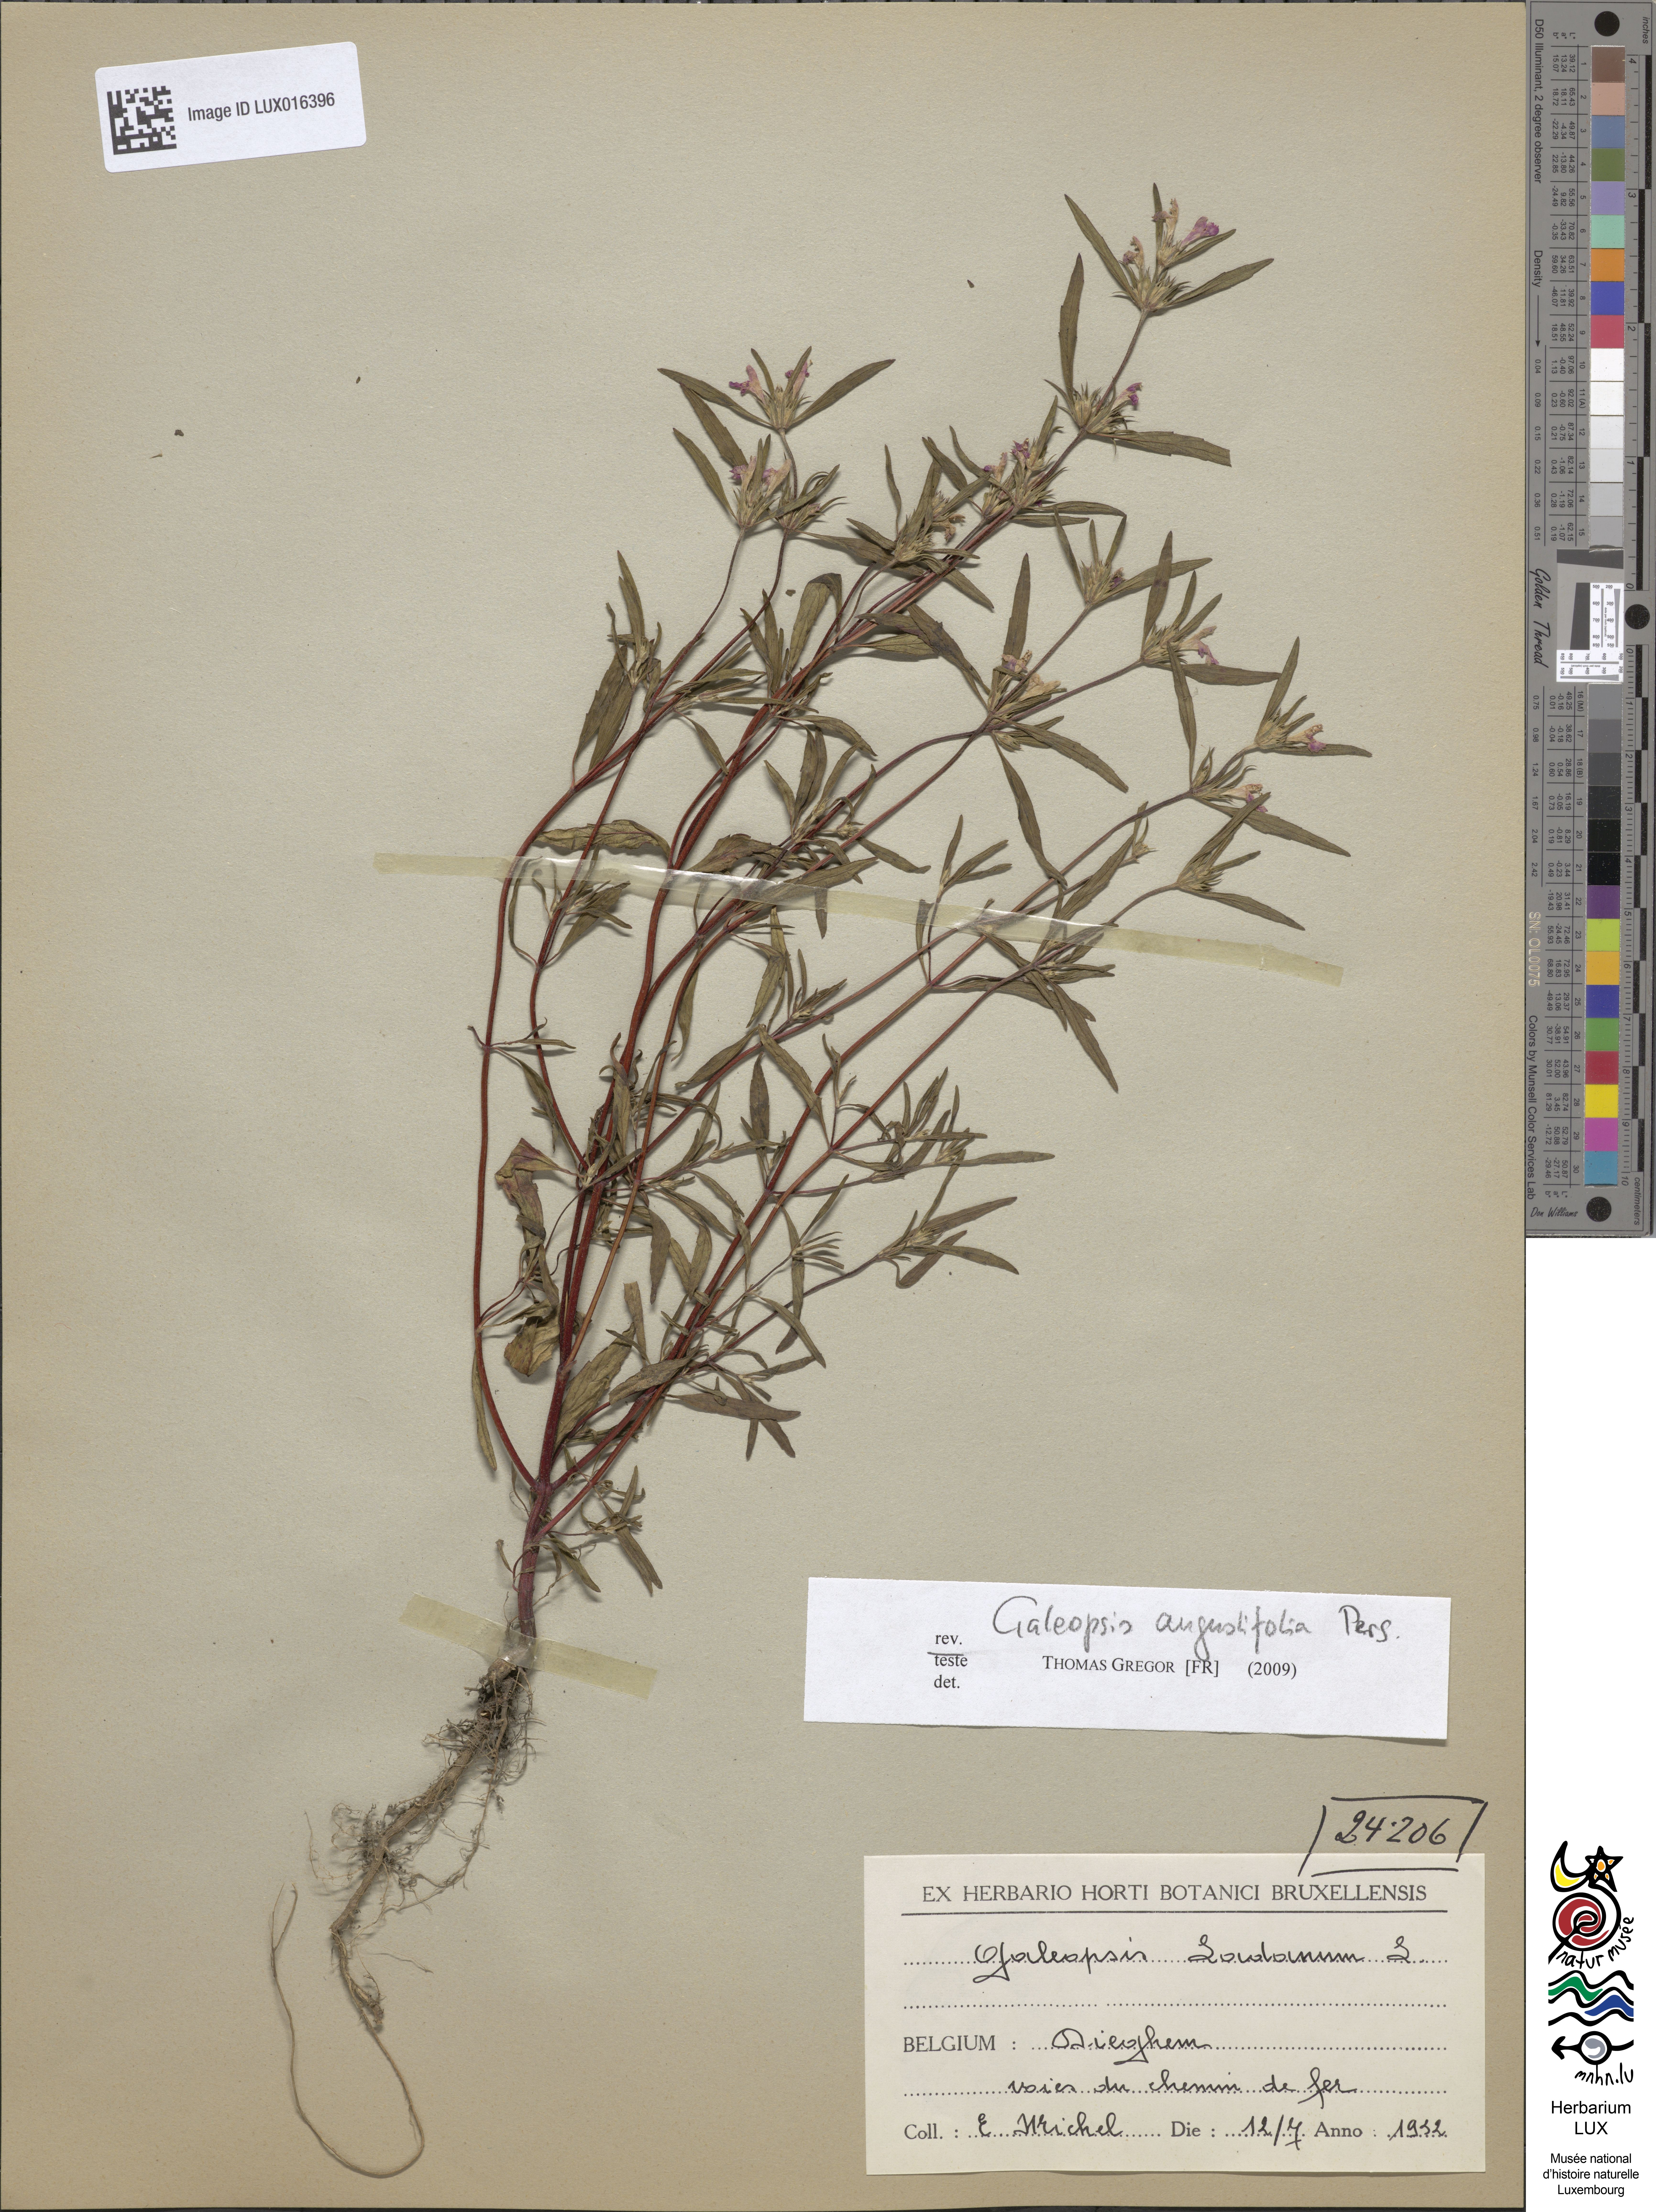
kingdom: Plantae
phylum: Tracheophyta
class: Magnoliopsida
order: Lamiales
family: Lamiaceae
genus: Galeopsis
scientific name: Galeopsis angustifolia
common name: Red hemp-nettle
